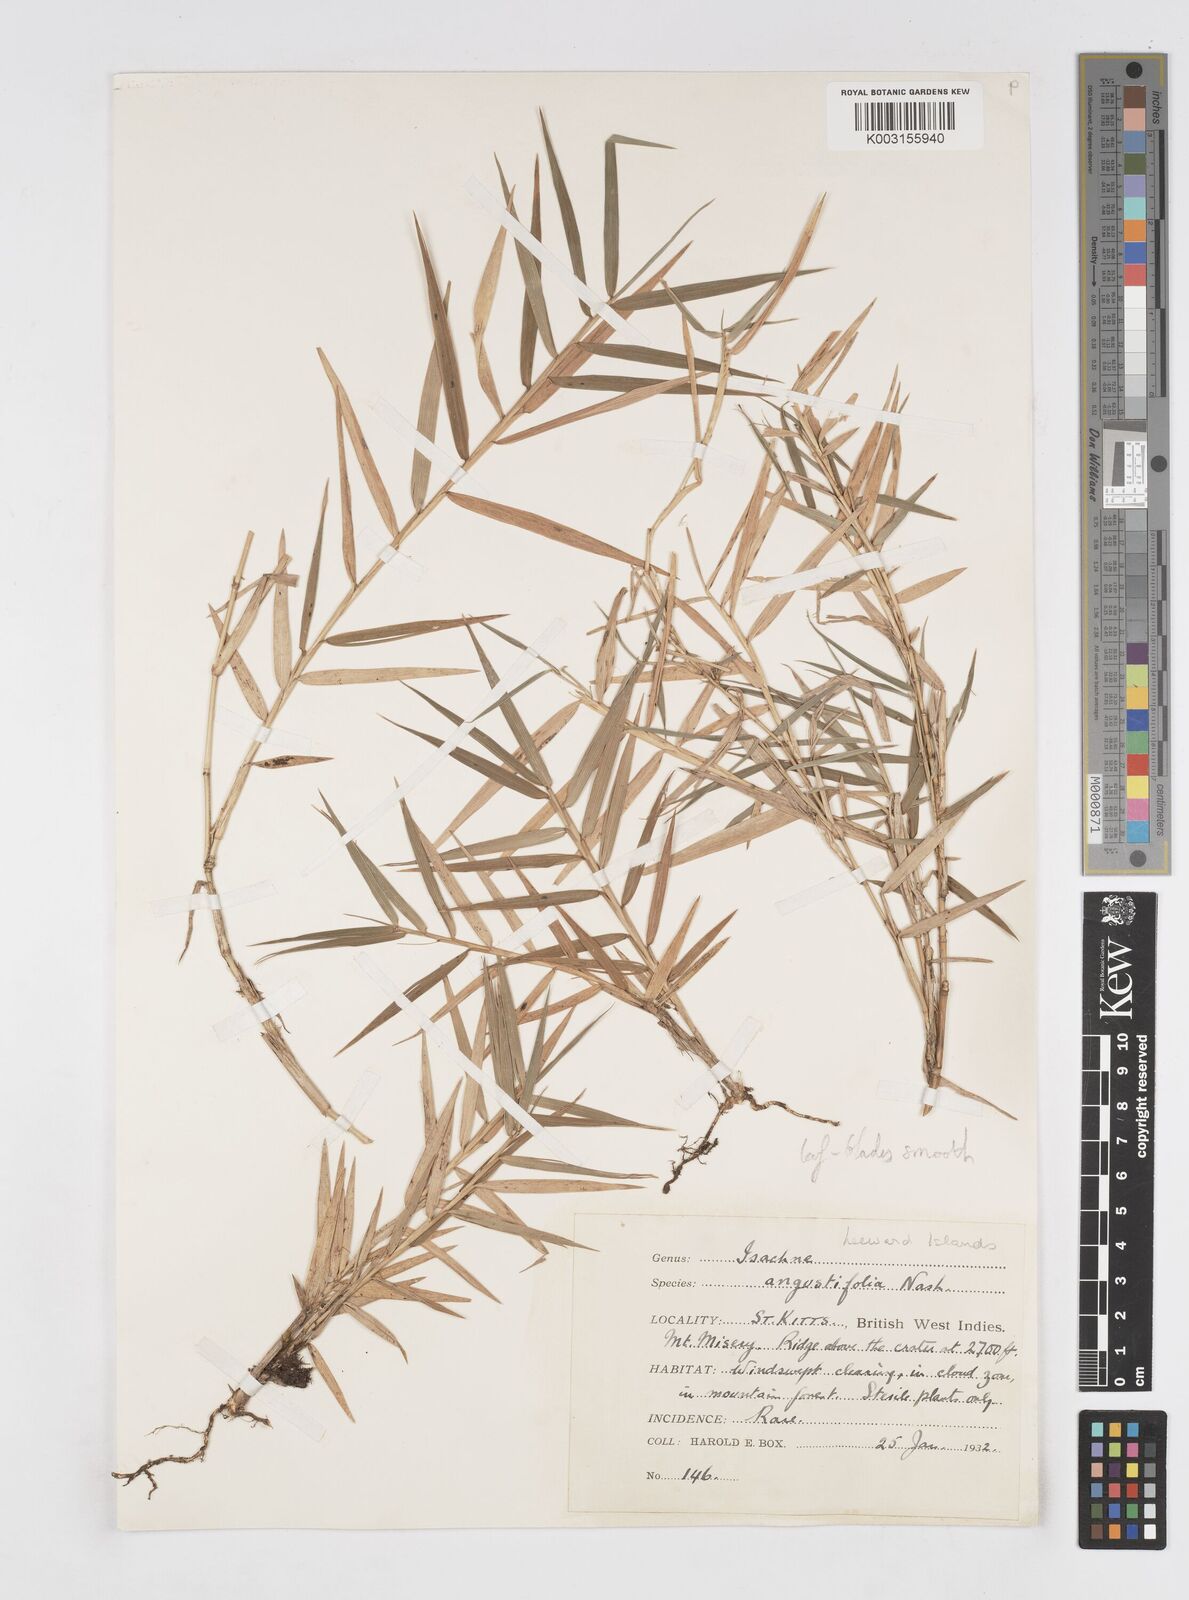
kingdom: Plantae
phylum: Tracheophyta
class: Liliopsida
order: Poales
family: Poaceae
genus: Isachne
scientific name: Isachne
